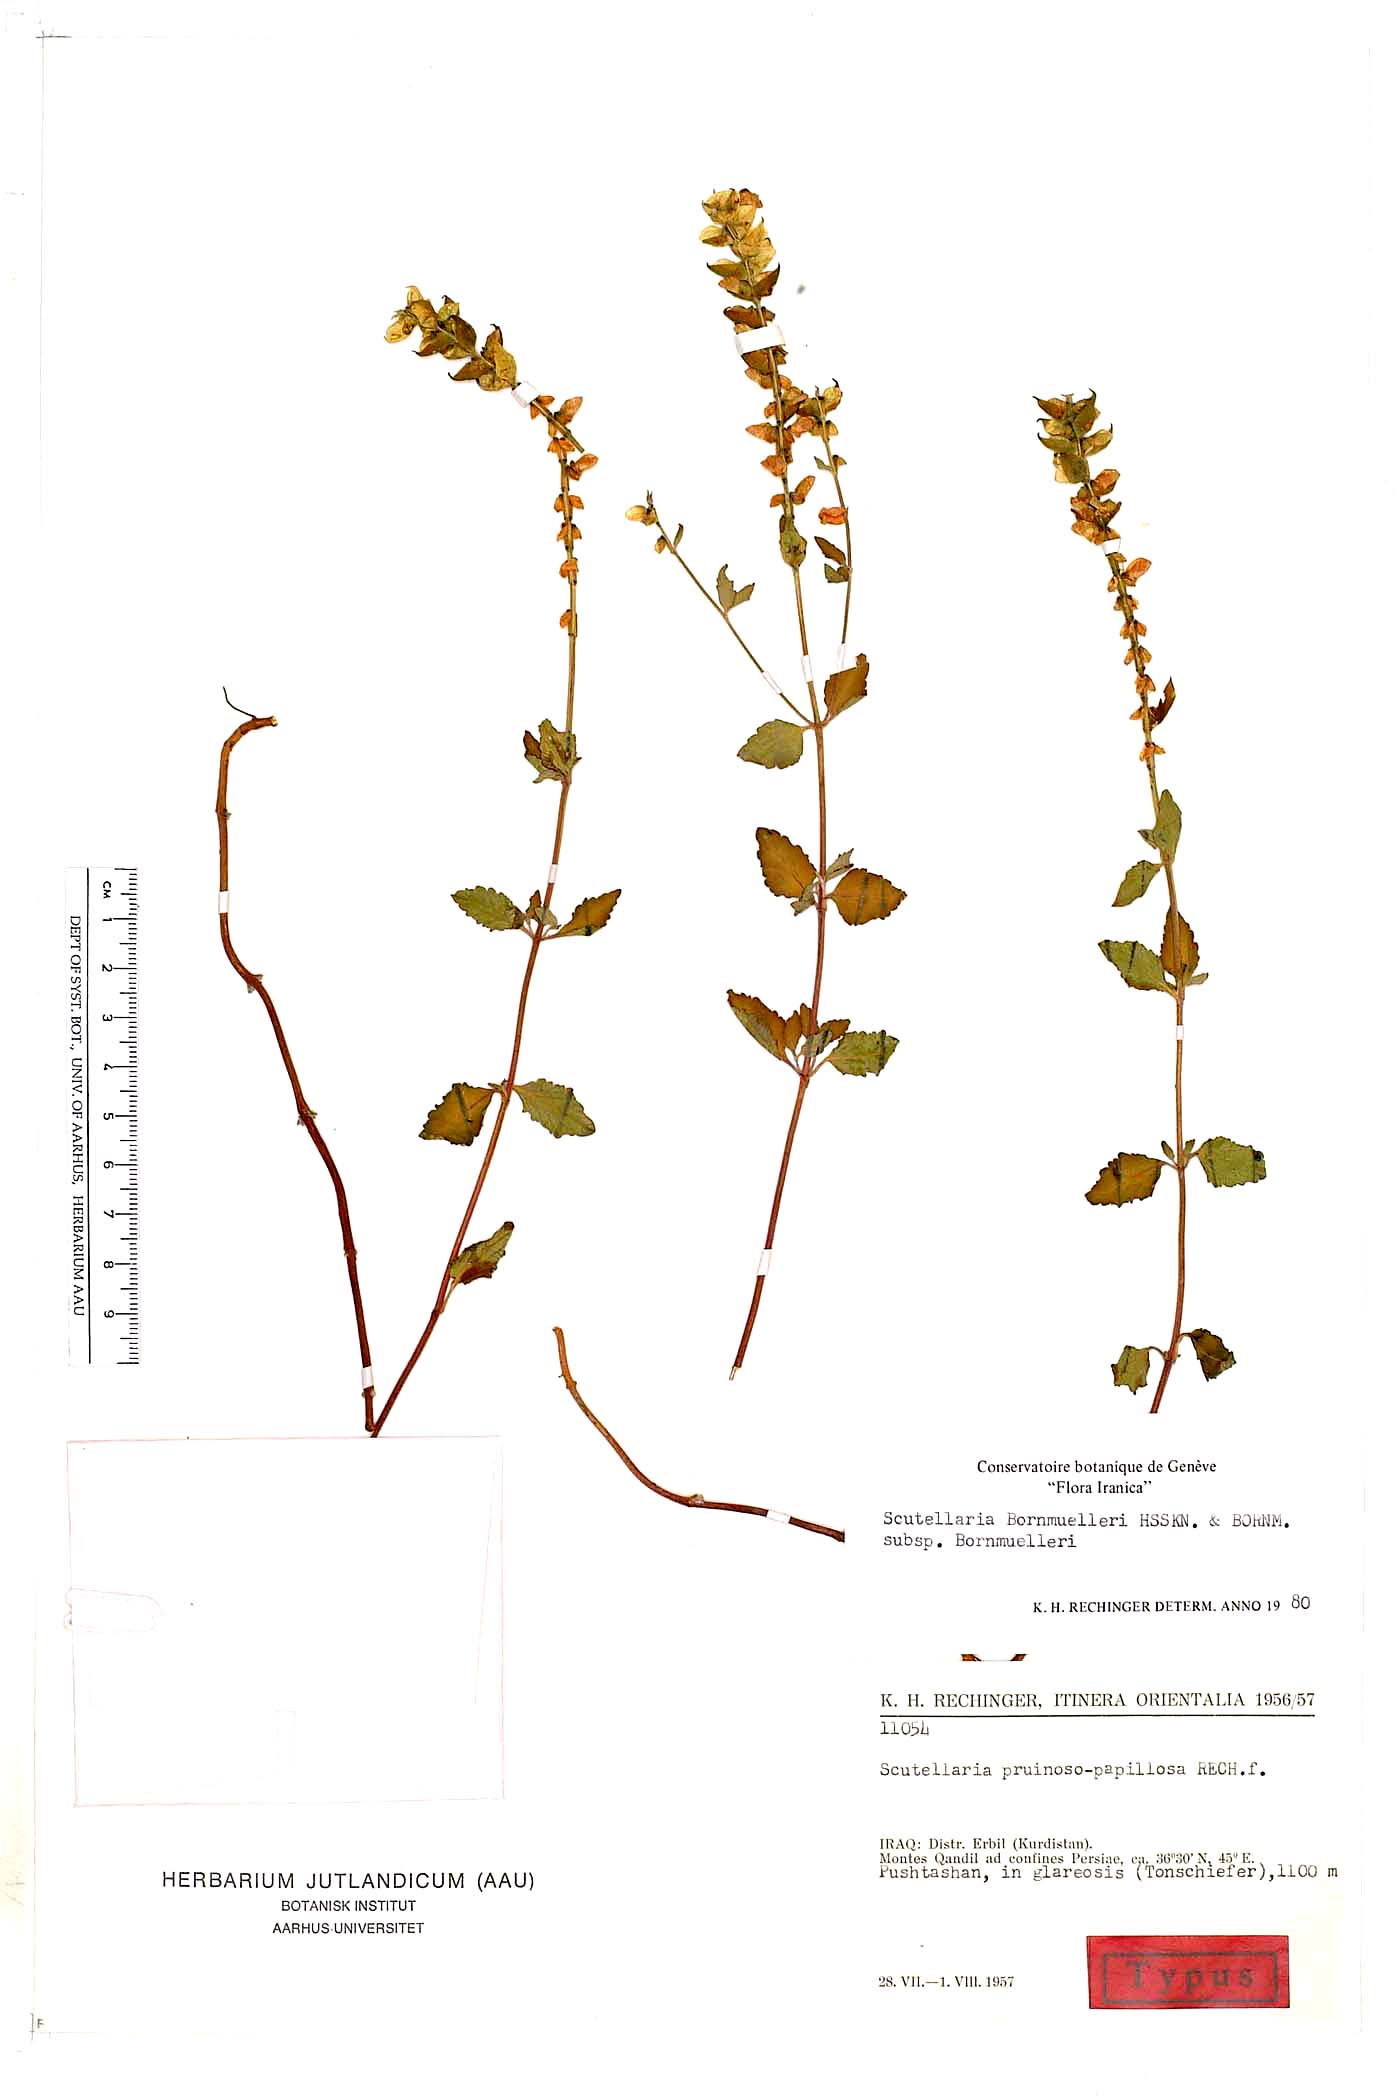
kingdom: Plantae
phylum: Tracheophyta
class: Magnoliopsida
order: Lamiales
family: Lamiaceae
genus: Scutellaria
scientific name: Scutellaria bornmuelleri
